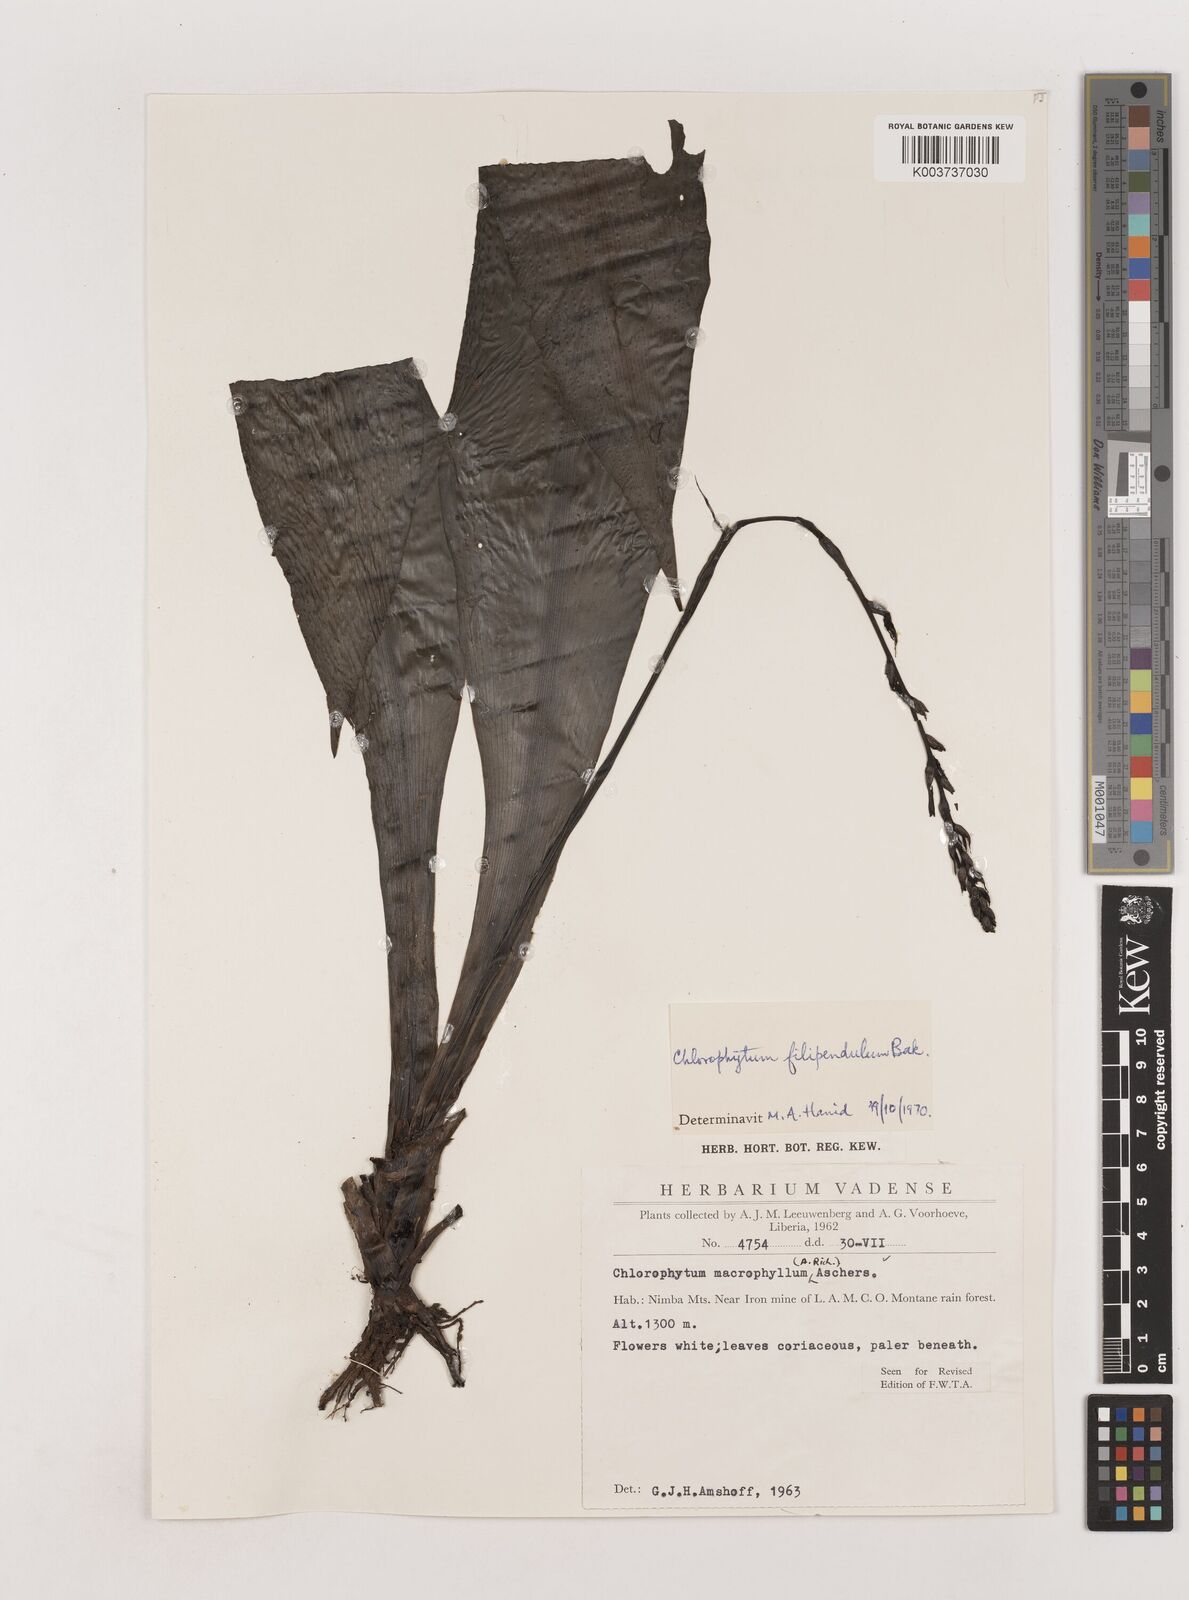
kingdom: Plantae
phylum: Tracheophyta
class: Liliopsida
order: Asparagales
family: Asparagaceae
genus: Chlorophytum
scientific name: Chlorophytum heynei
